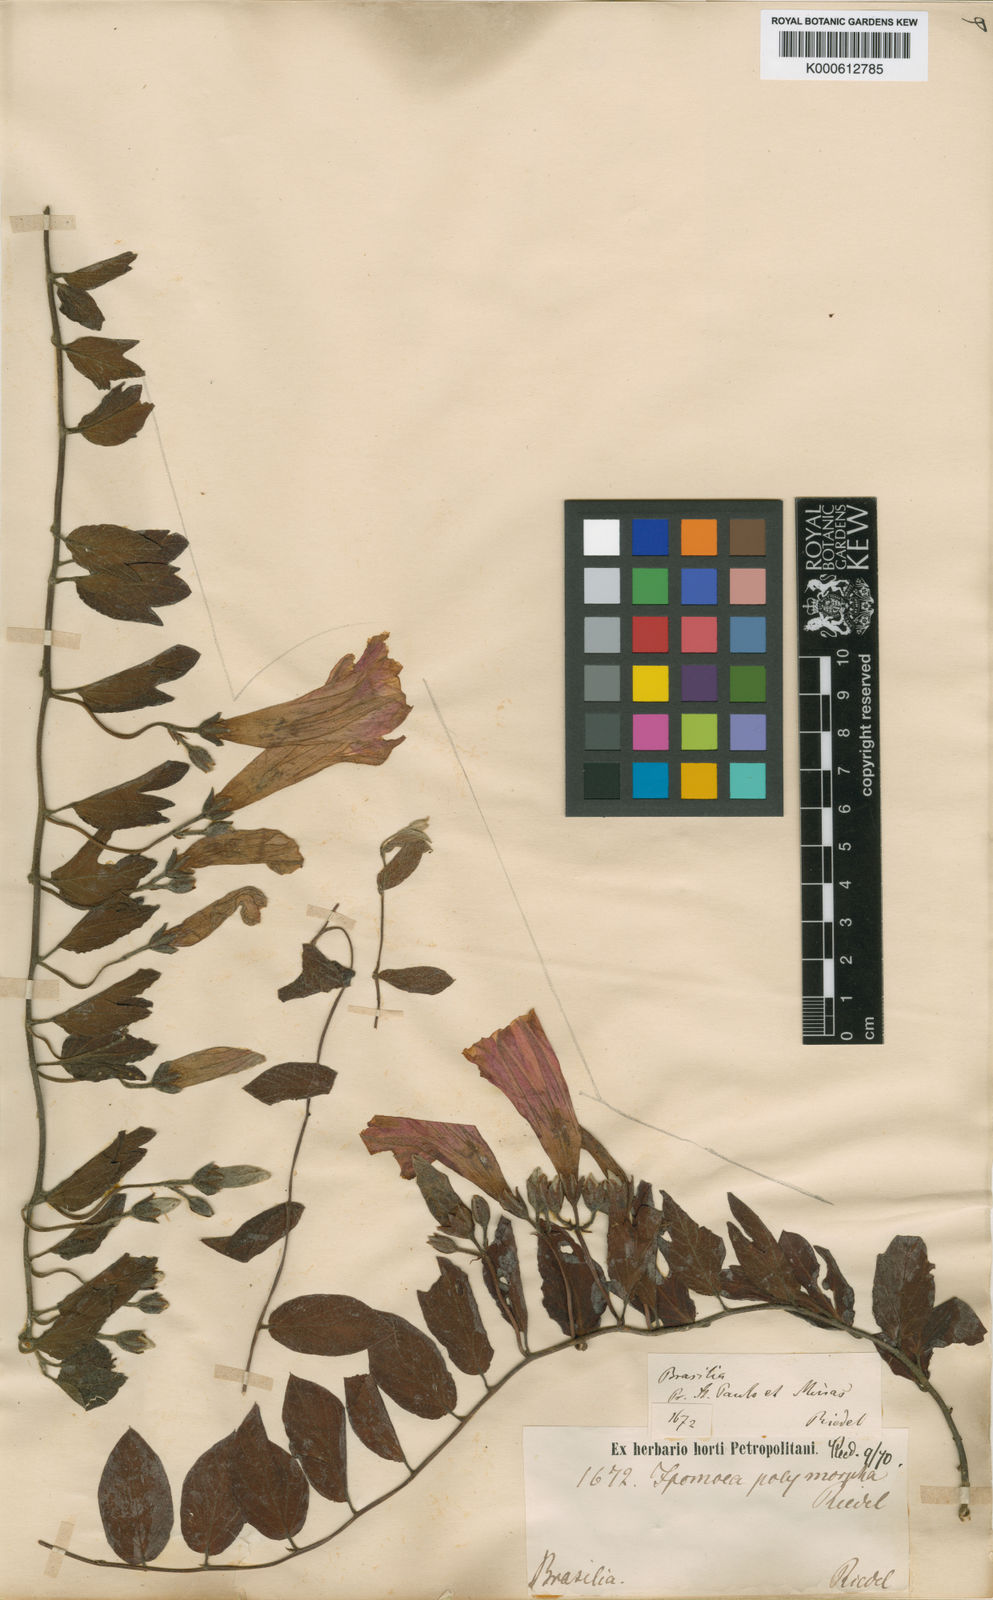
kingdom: Plantae
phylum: Tracheophyta
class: Magnoliopsida
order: Solanales
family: Convolvulaceae
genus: Ipomoea
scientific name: Ipomoea delphinioides
